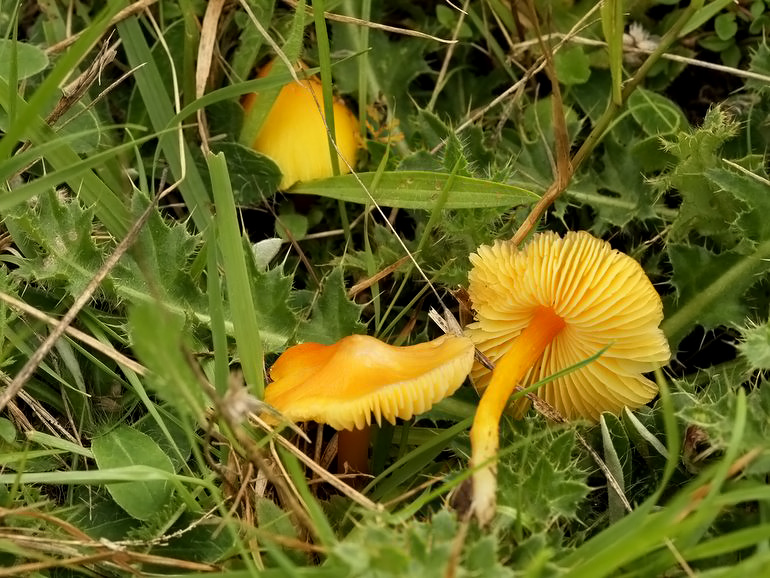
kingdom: Fungi
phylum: Basidiomycota
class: Agaricomycetes
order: Agaricales
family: Hygrophoraceae
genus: Hygrocybe
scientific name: Hygrocybe acutoconica
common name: spidspuklet vokshat
